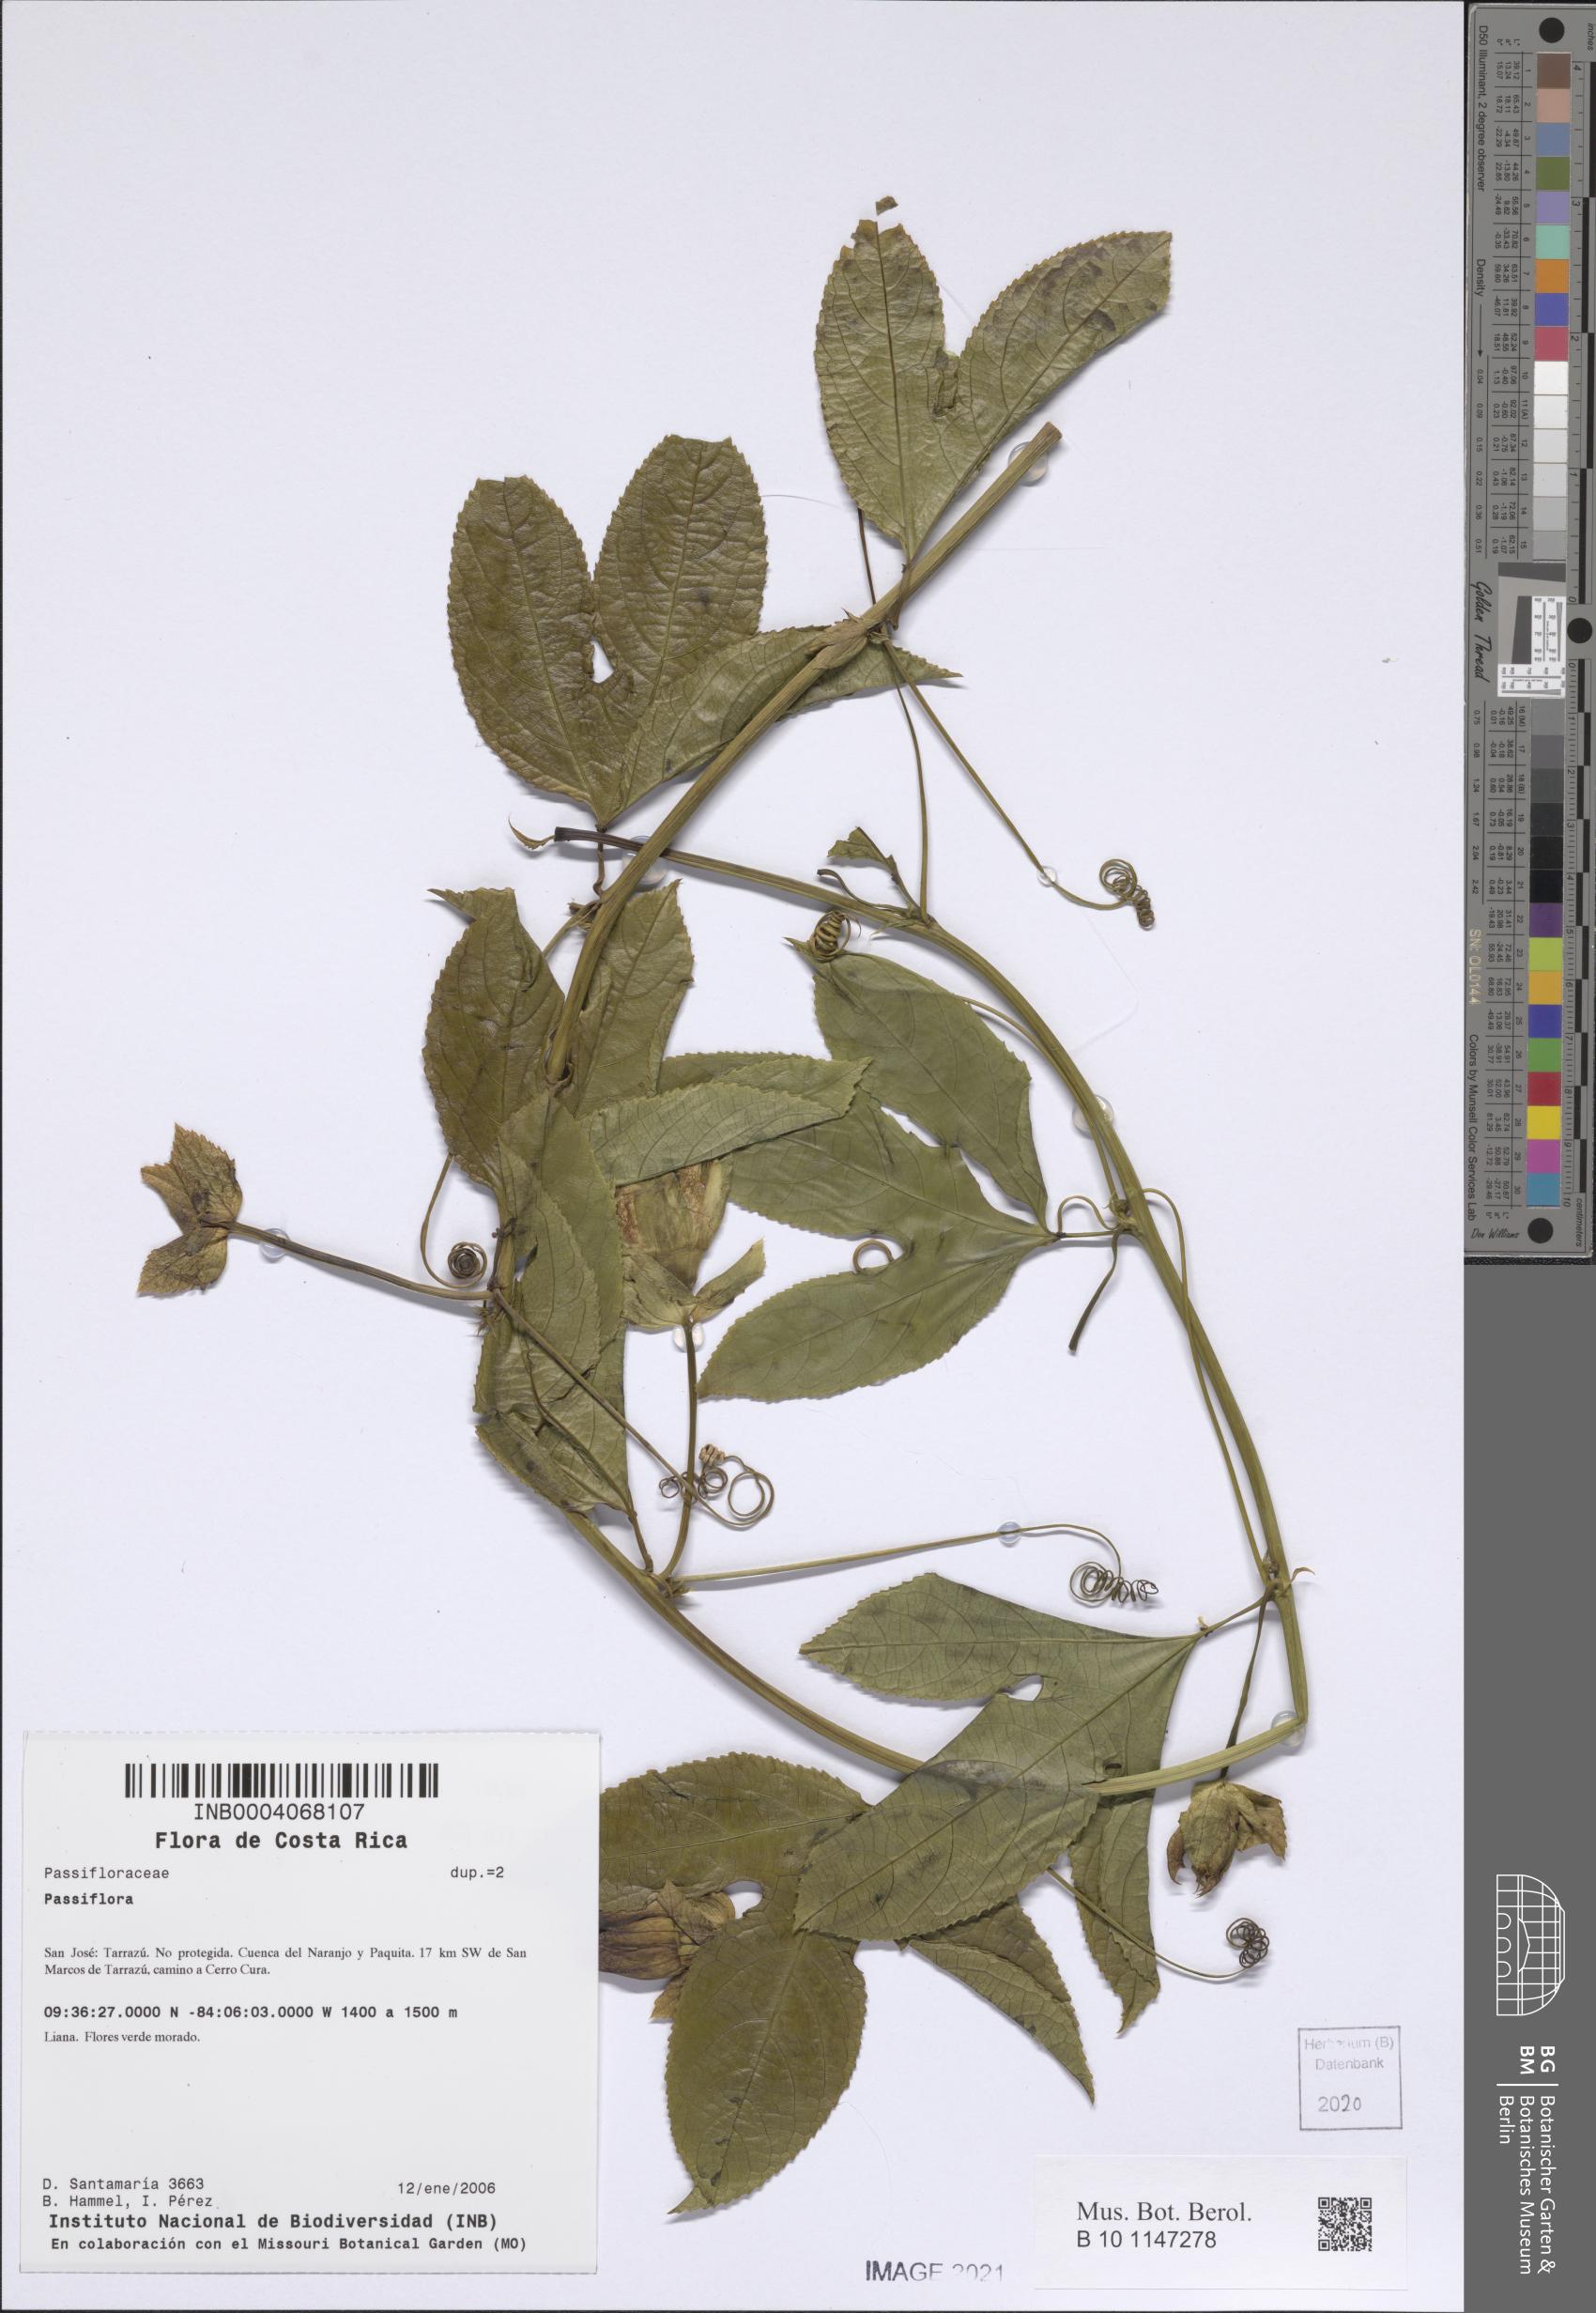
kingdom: Plantae
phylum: Tracheophyta
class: Magnoliopsida
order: Malpighiales
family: Passifloraceae
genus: Passiflora
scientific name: Passiflora
